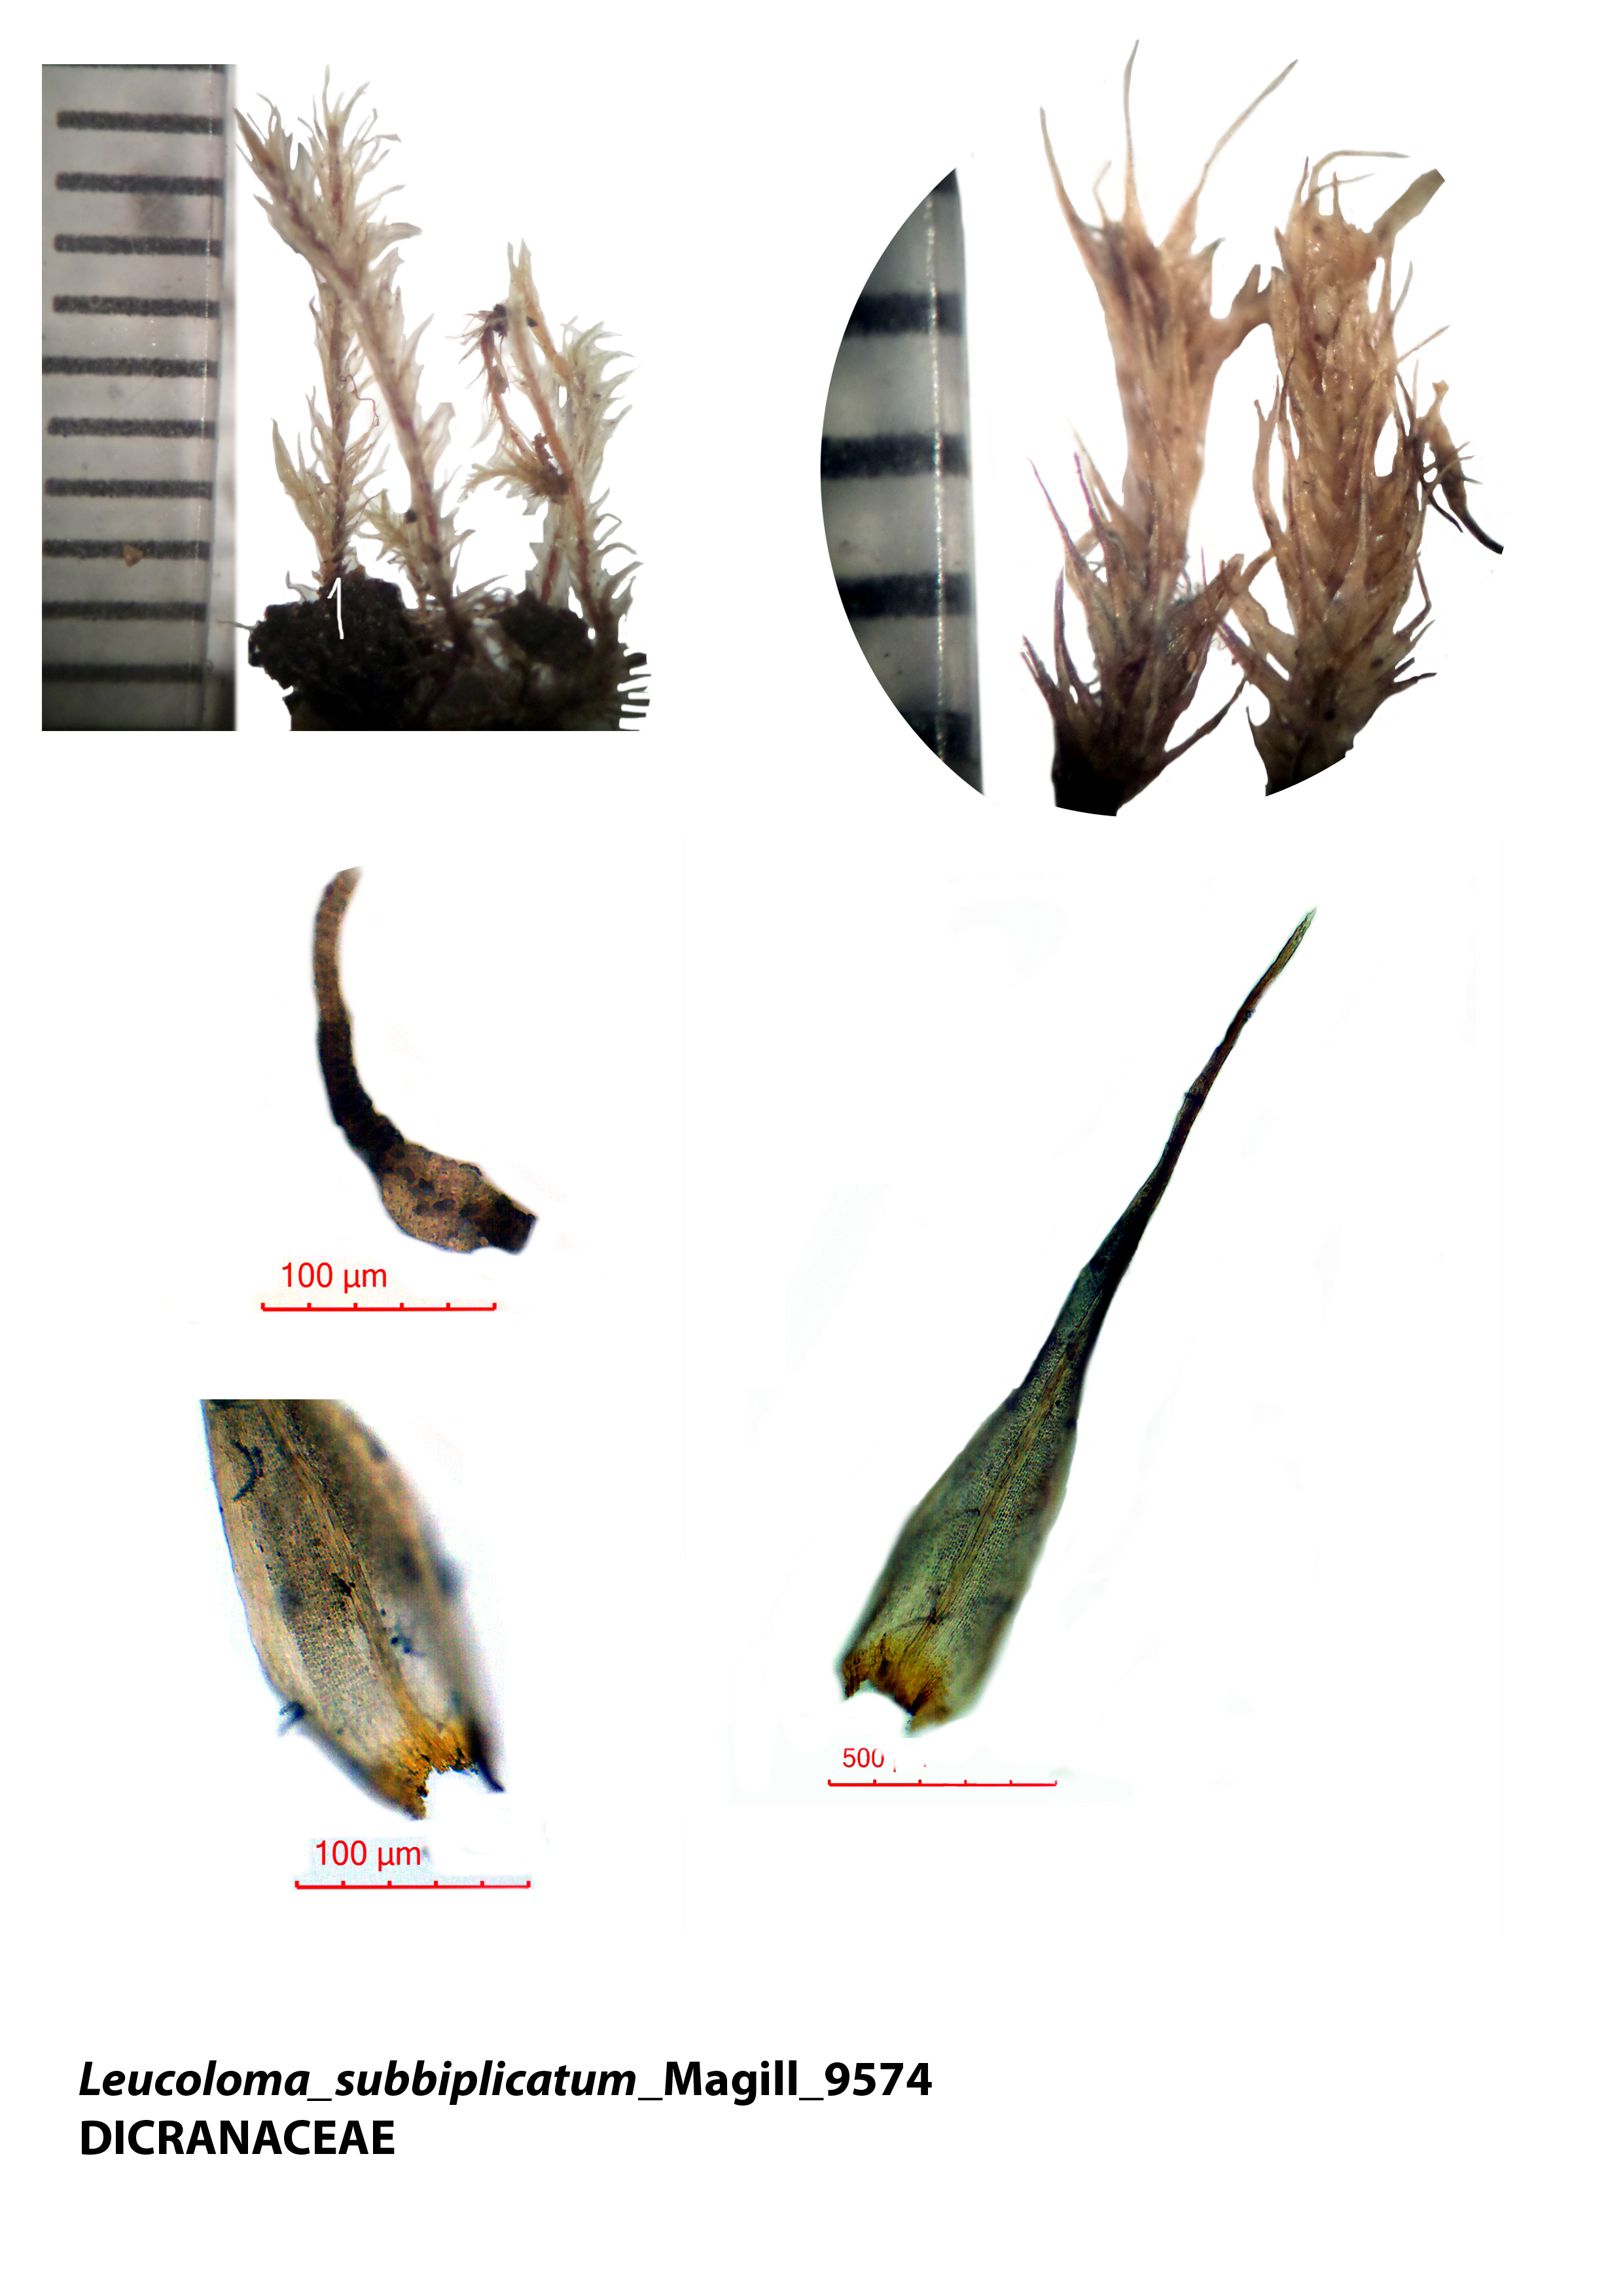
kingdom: Plantae
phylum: Bryophyta
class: Bryopsida
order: Dicranales
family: Dicranaceae
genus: Leucoloma
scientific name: Leucoloma lepervanchei
